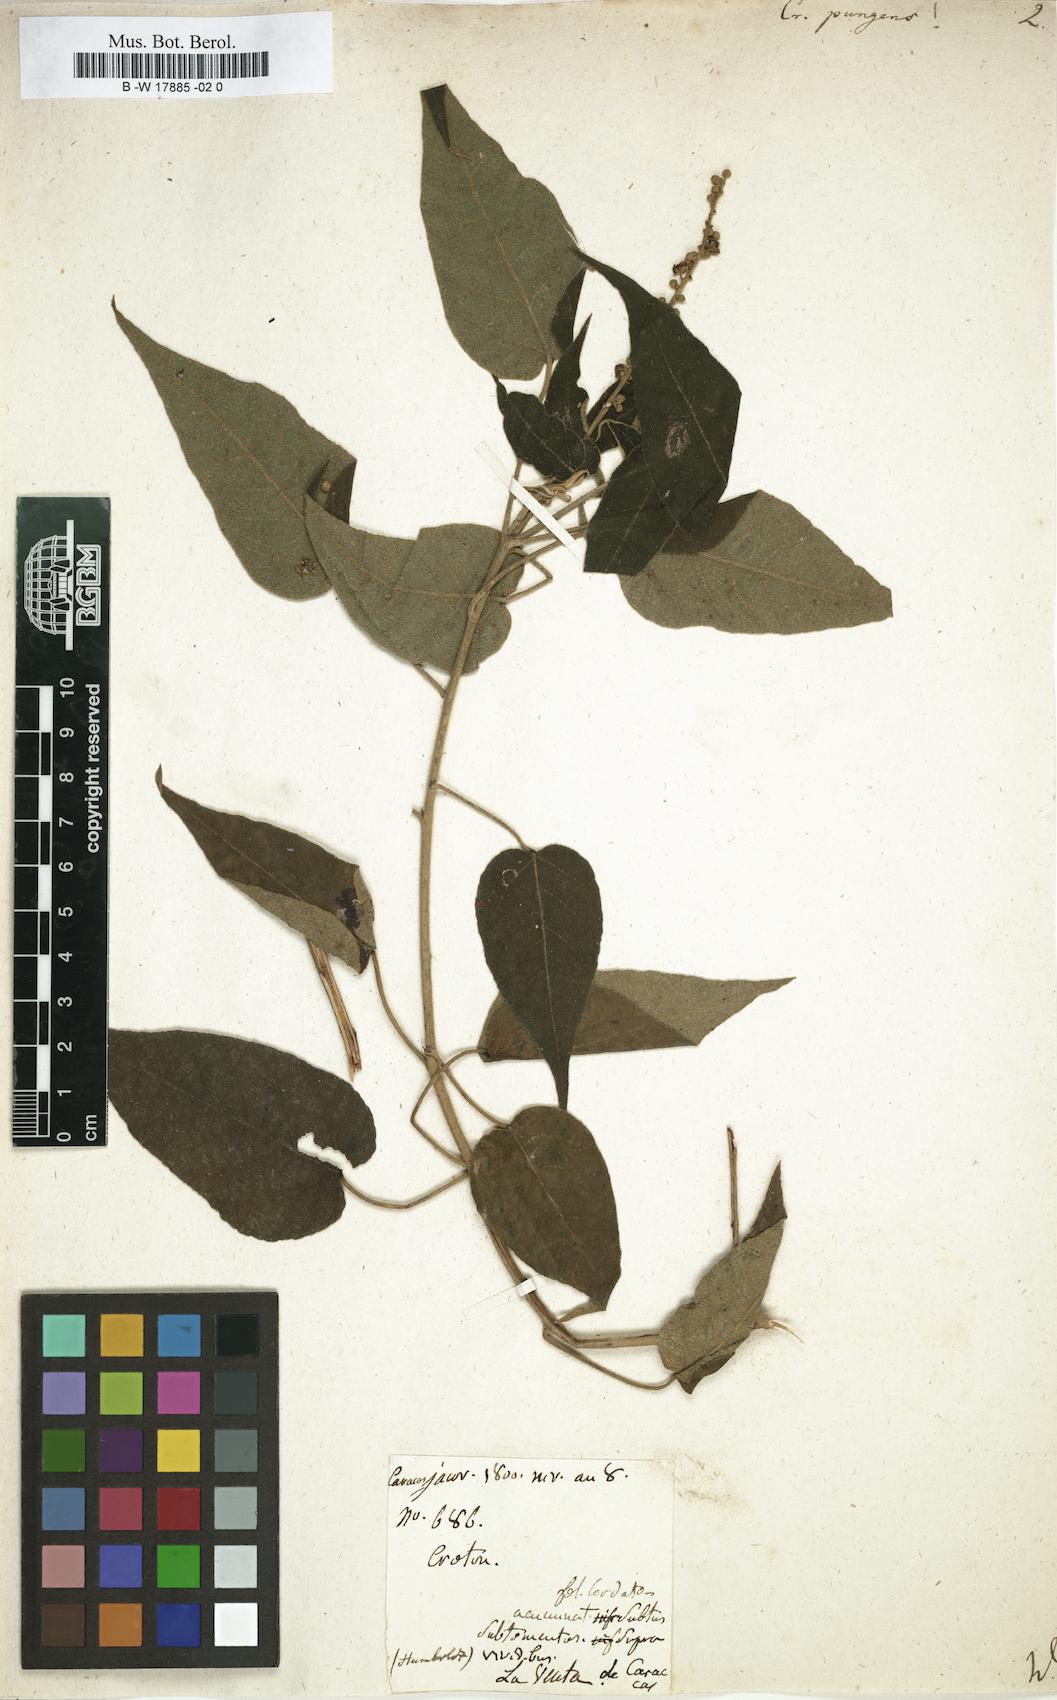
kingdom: Plantae
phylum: Tracheophyta
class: Magnoliopsida
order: Malpighiales
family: Euphorbiaceae
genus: Croton
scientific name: Croton pungens
